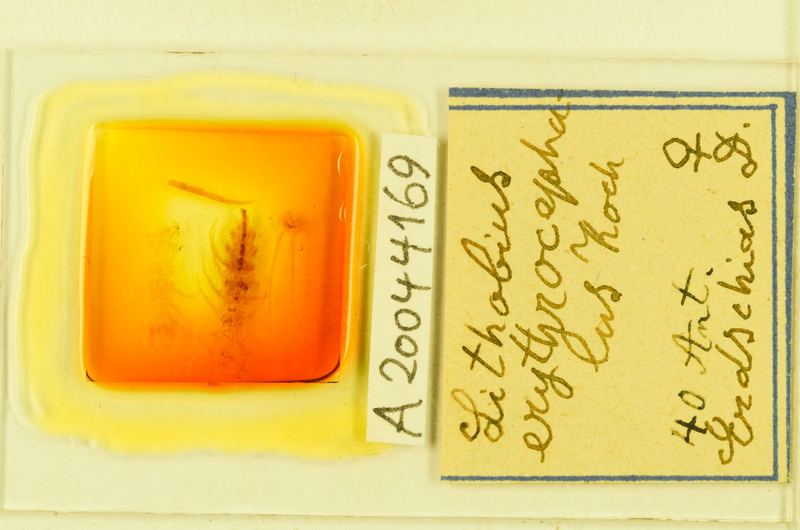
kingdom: Animalia
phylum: Arthropoda
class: Chilopoda
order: Lithobiomorpha
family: Lithobiidae
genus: Lithobius
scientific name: Lithobius erythrocephalus
